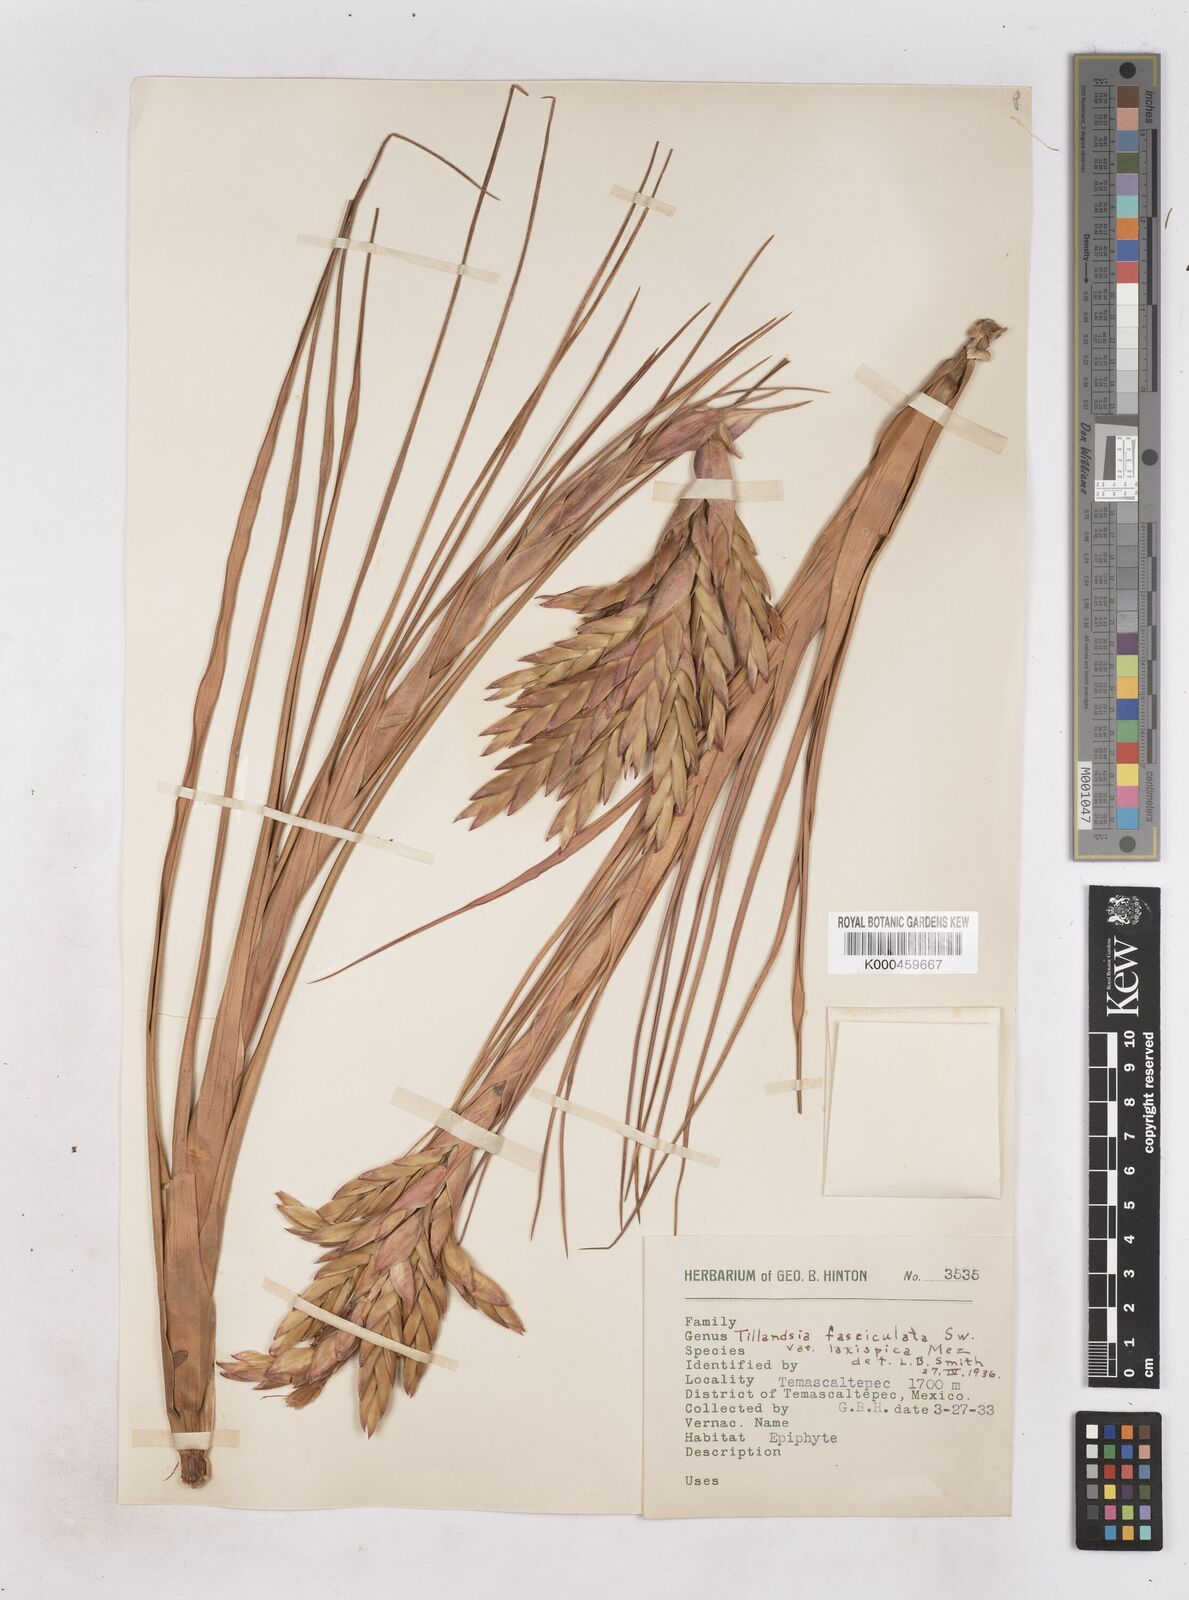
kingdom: Plantae
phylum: Tracheophyta
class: Liliopsida
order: Poales
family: Bromeliaceae
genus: Tillandsia
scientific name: Tillandsia
